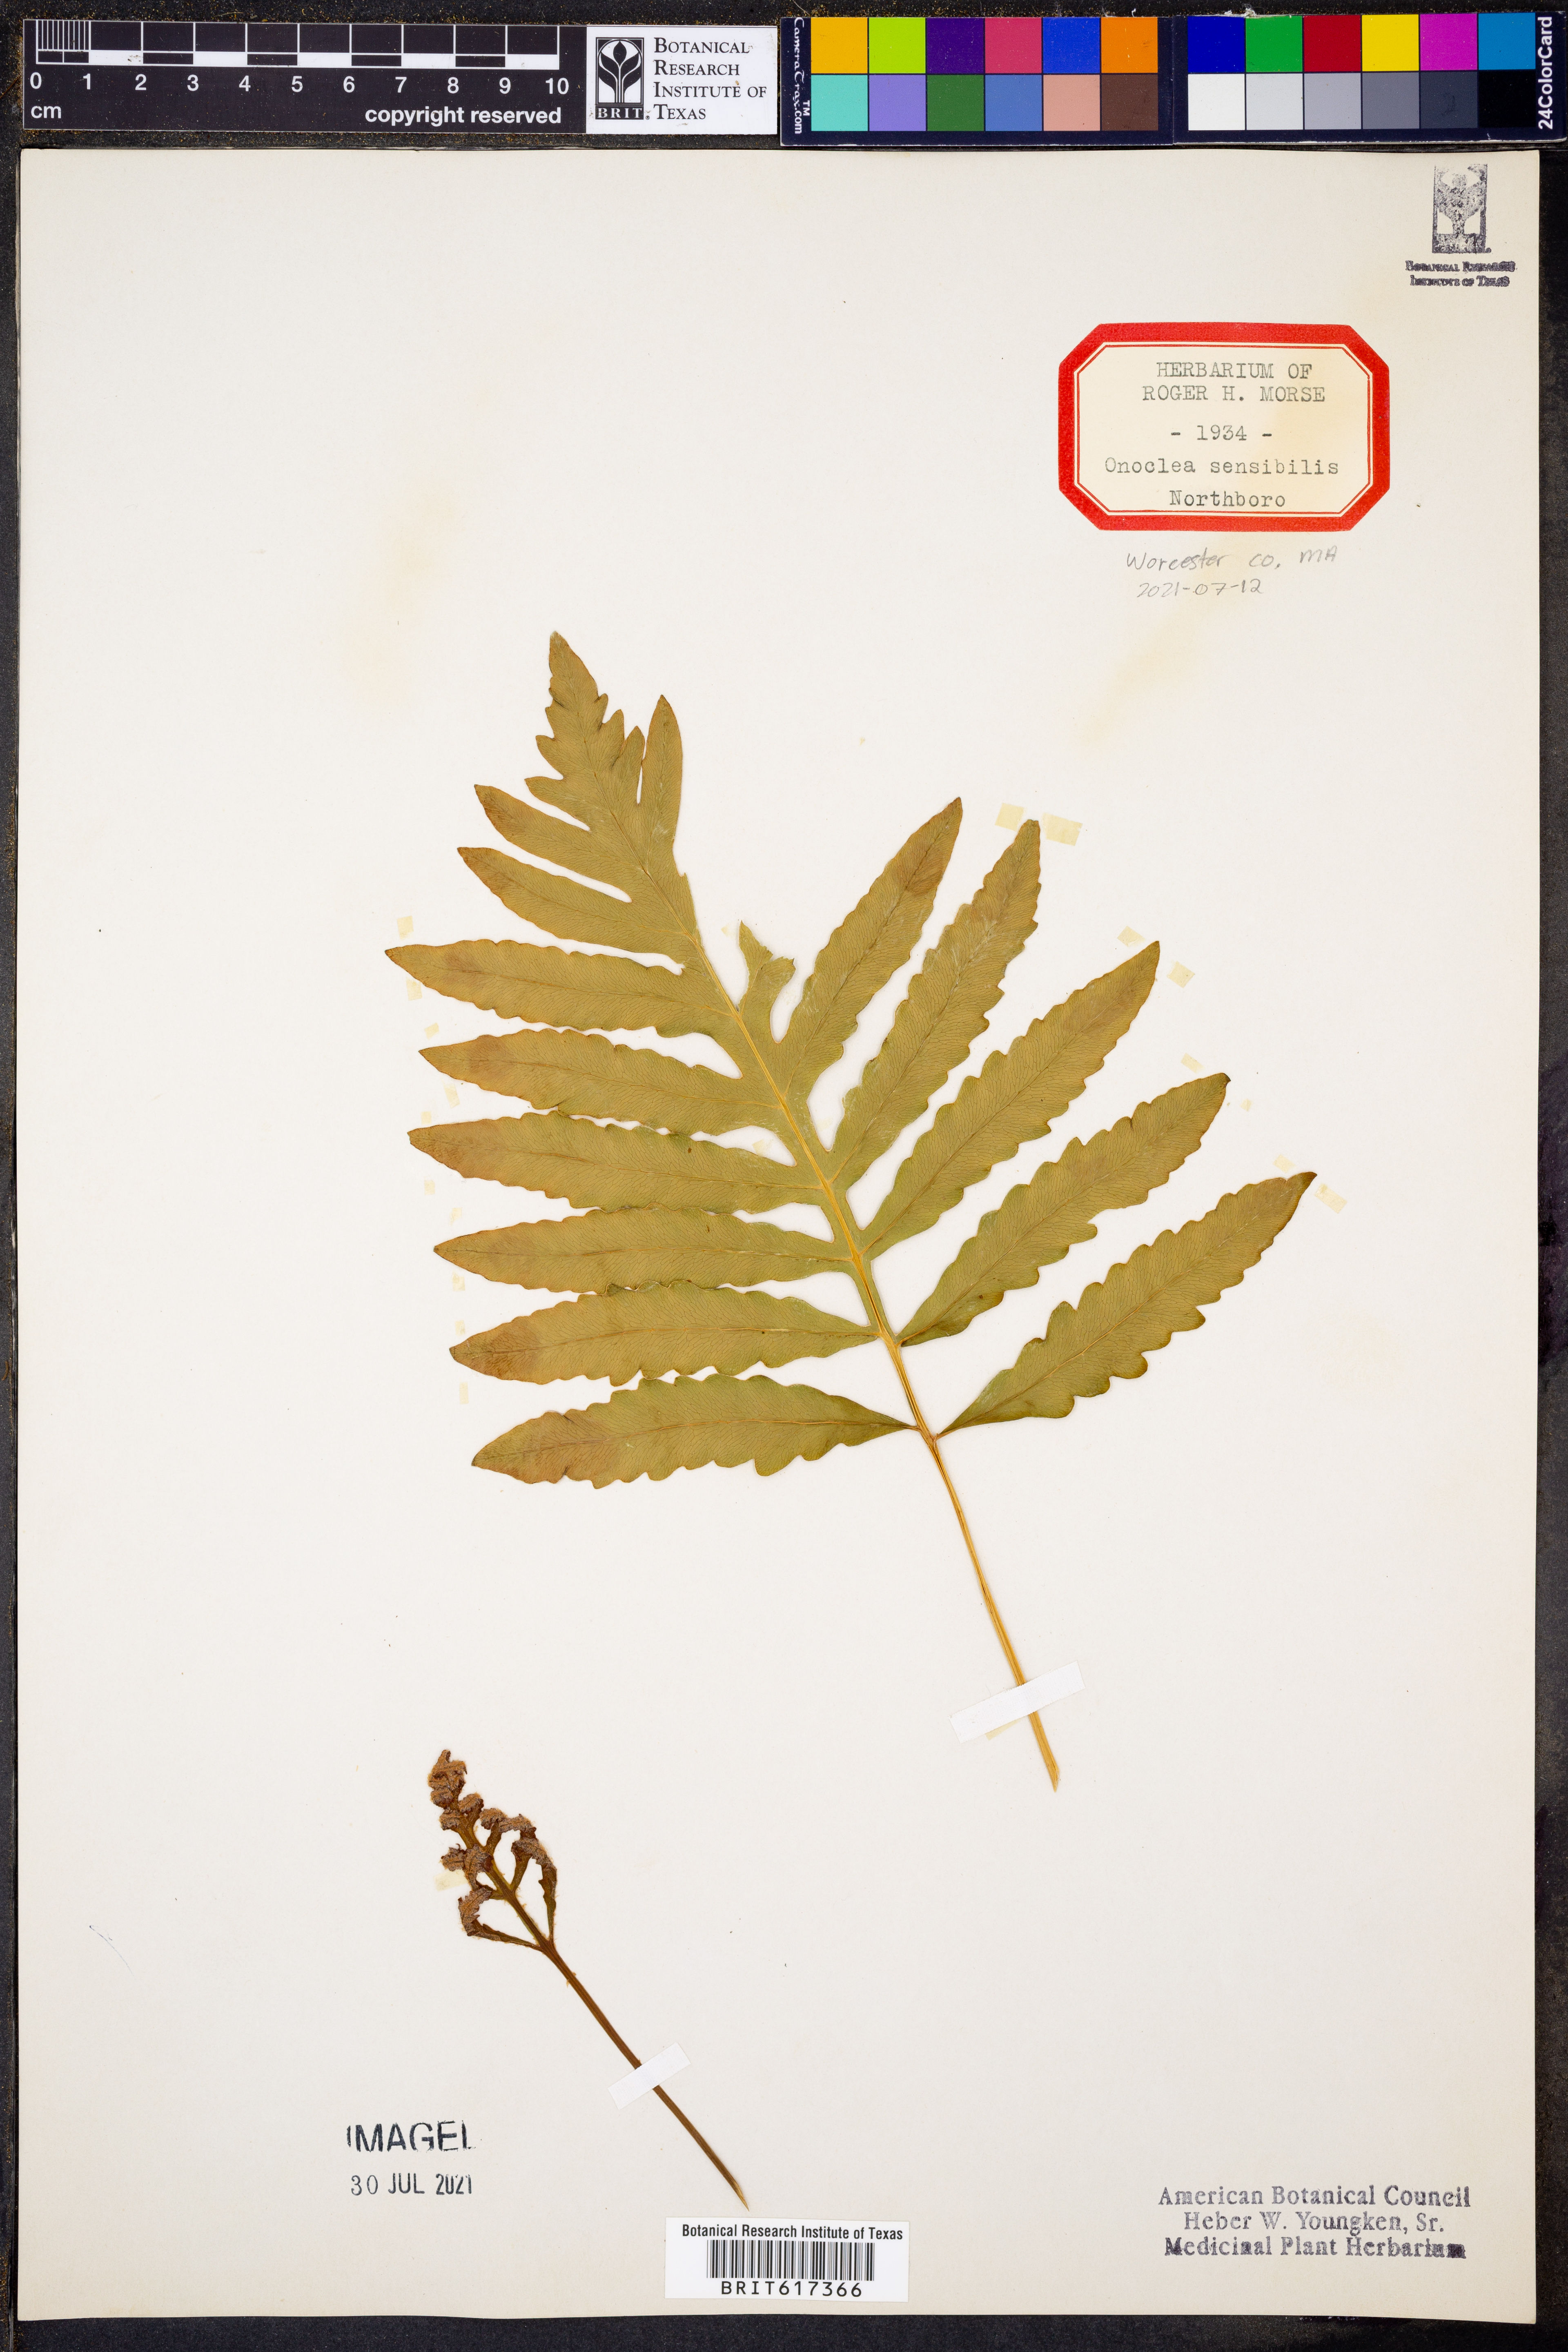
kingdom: Plantae
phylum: Tracheophyta
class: Polypodiopsida
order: Polypodiales
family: Onocleaceae
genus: Onoclea
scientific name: Onoclea sensibilis
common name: Sensitive fern
